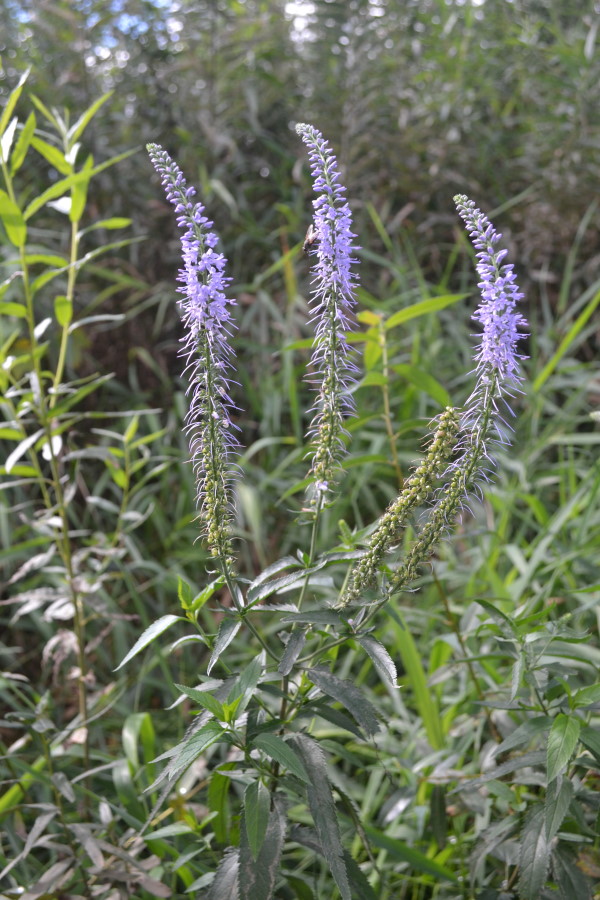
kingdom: Plantae
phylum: Tracheophyta
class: Magnoliopsida
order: Lamiales
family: Plantaginaceae
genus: Veronica
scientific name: Veronica longifolia
